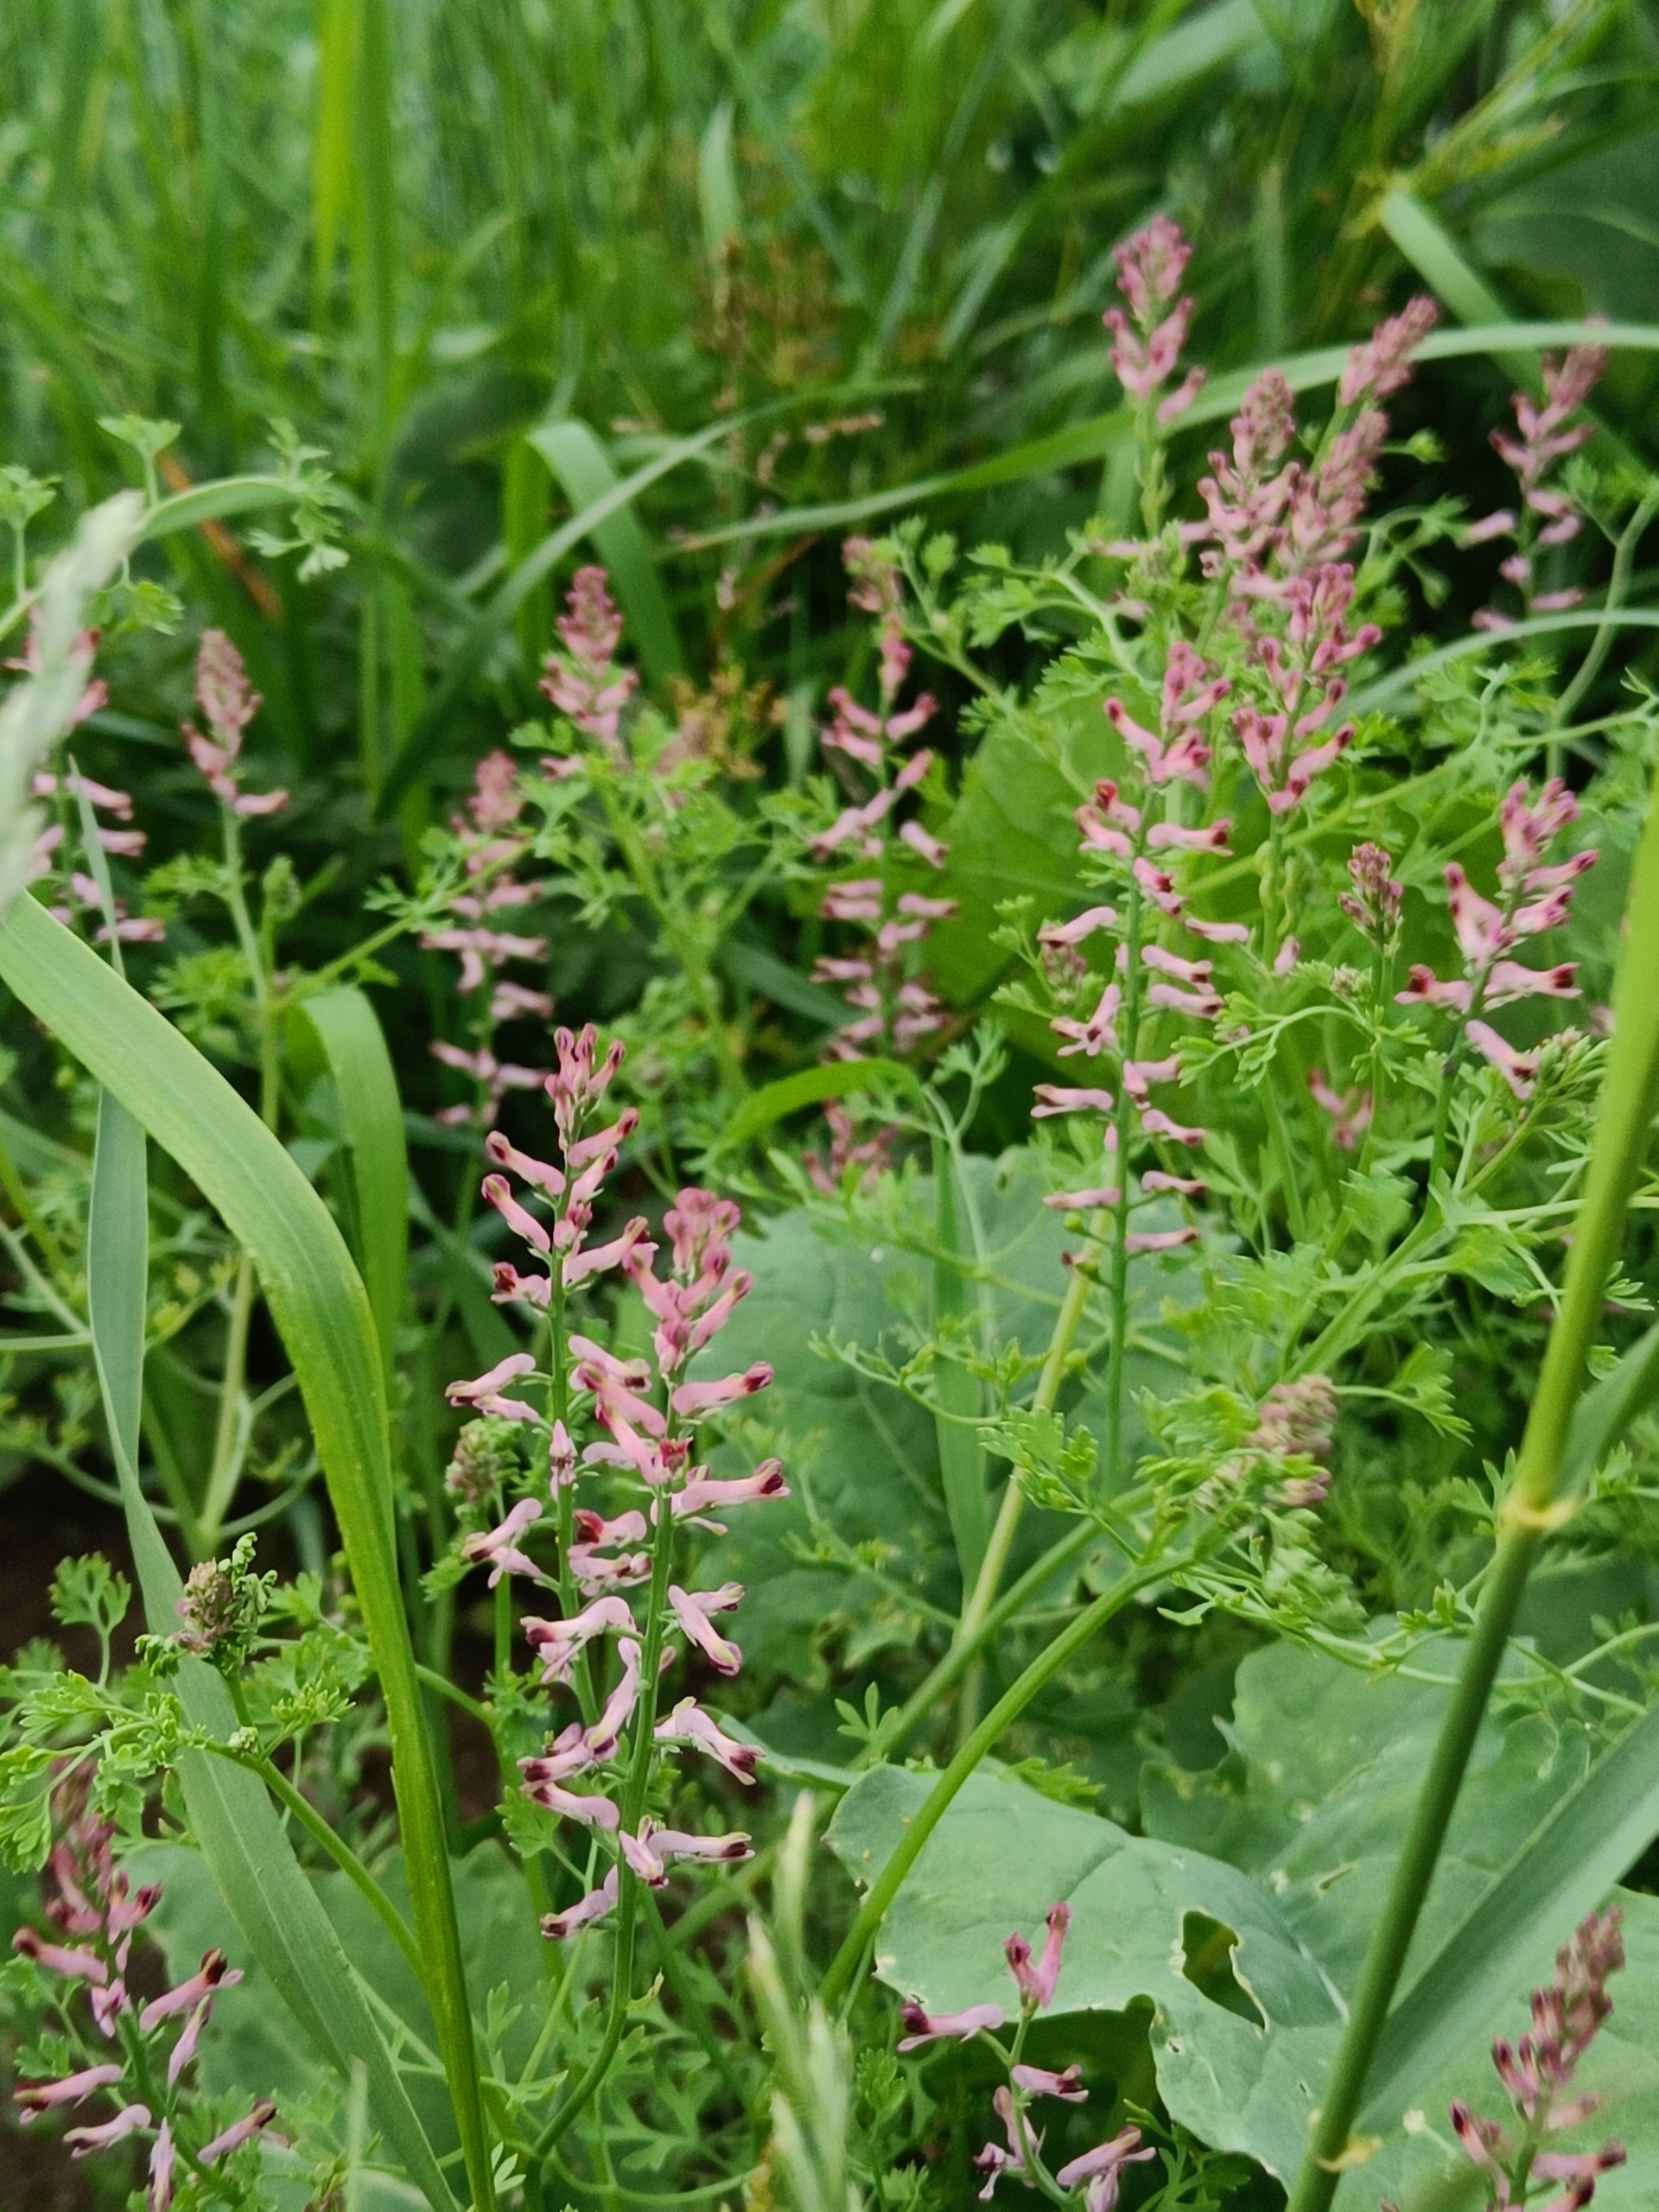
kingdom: Plantae
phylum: Tracheophyta
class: Magnoliopsida
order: Ranunculales
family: Papaveraceae
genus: Fumaria
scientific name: Fumaria officinalis
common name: Læge-jordrøg
